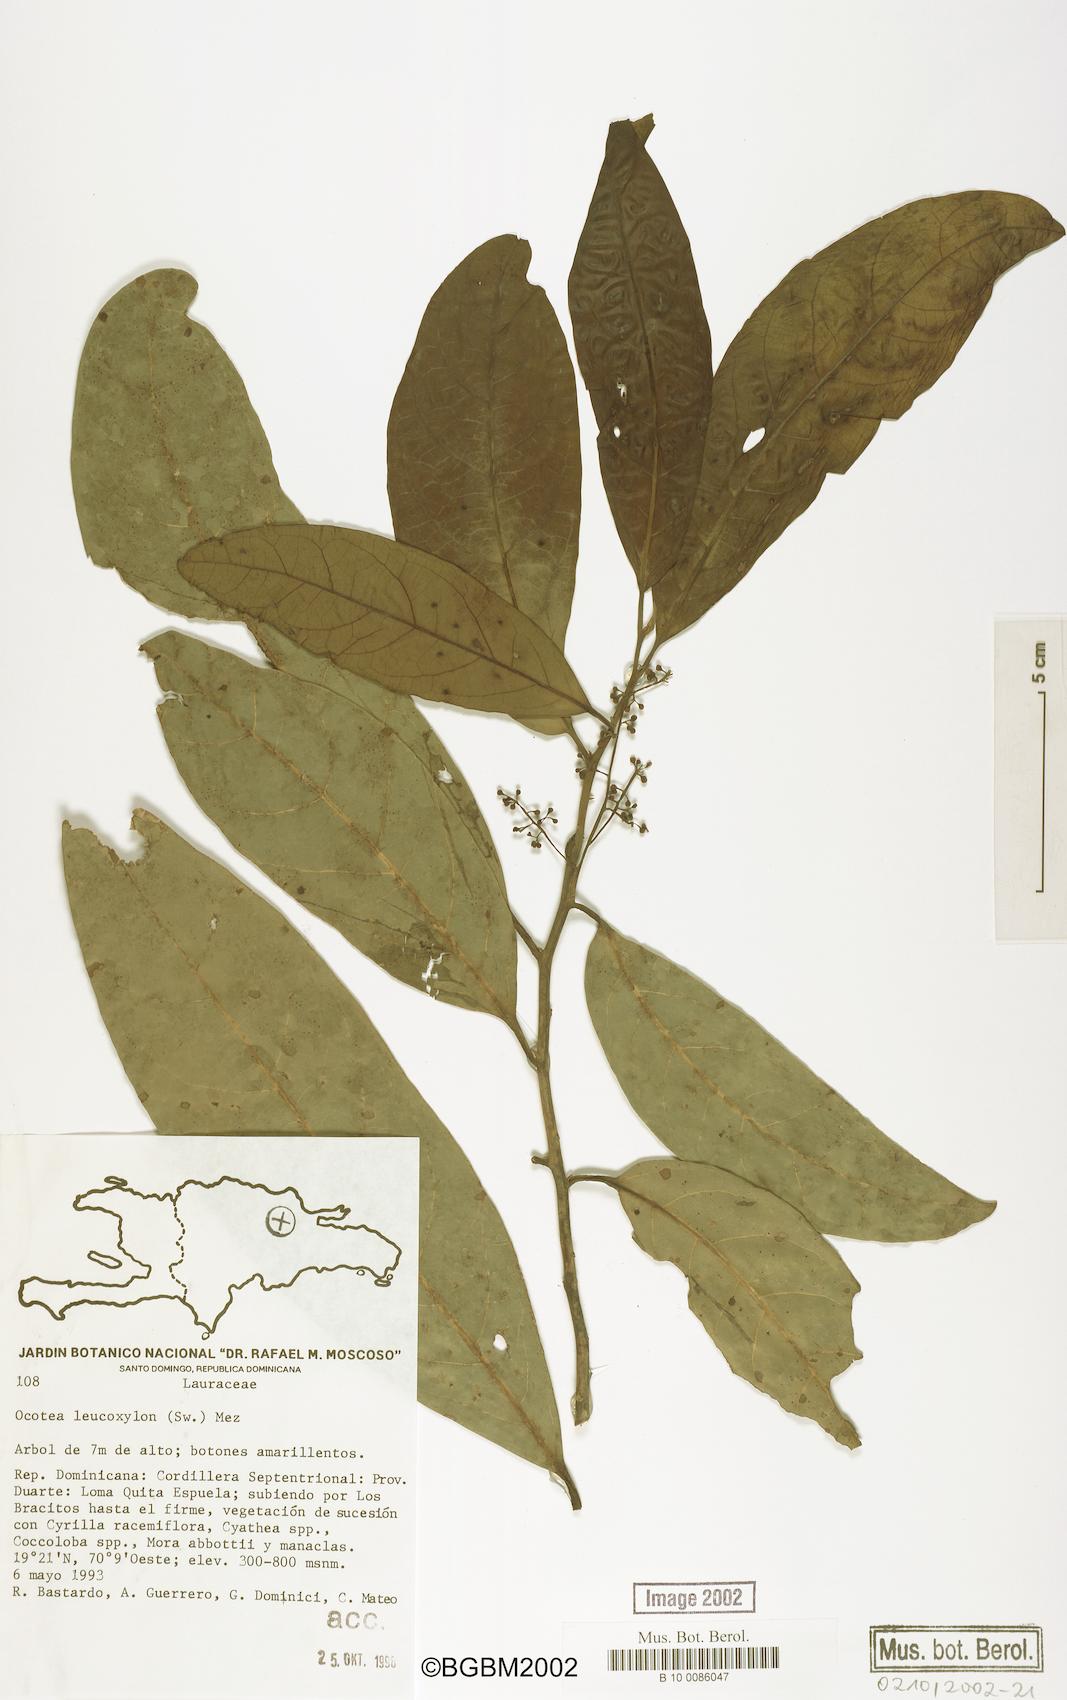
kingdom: Plantae
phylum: Tracheophyta
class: Magnoliopsida
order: Laurales
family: Lauraceae
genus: Ocotea
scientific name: Ocotea leucoxylon
